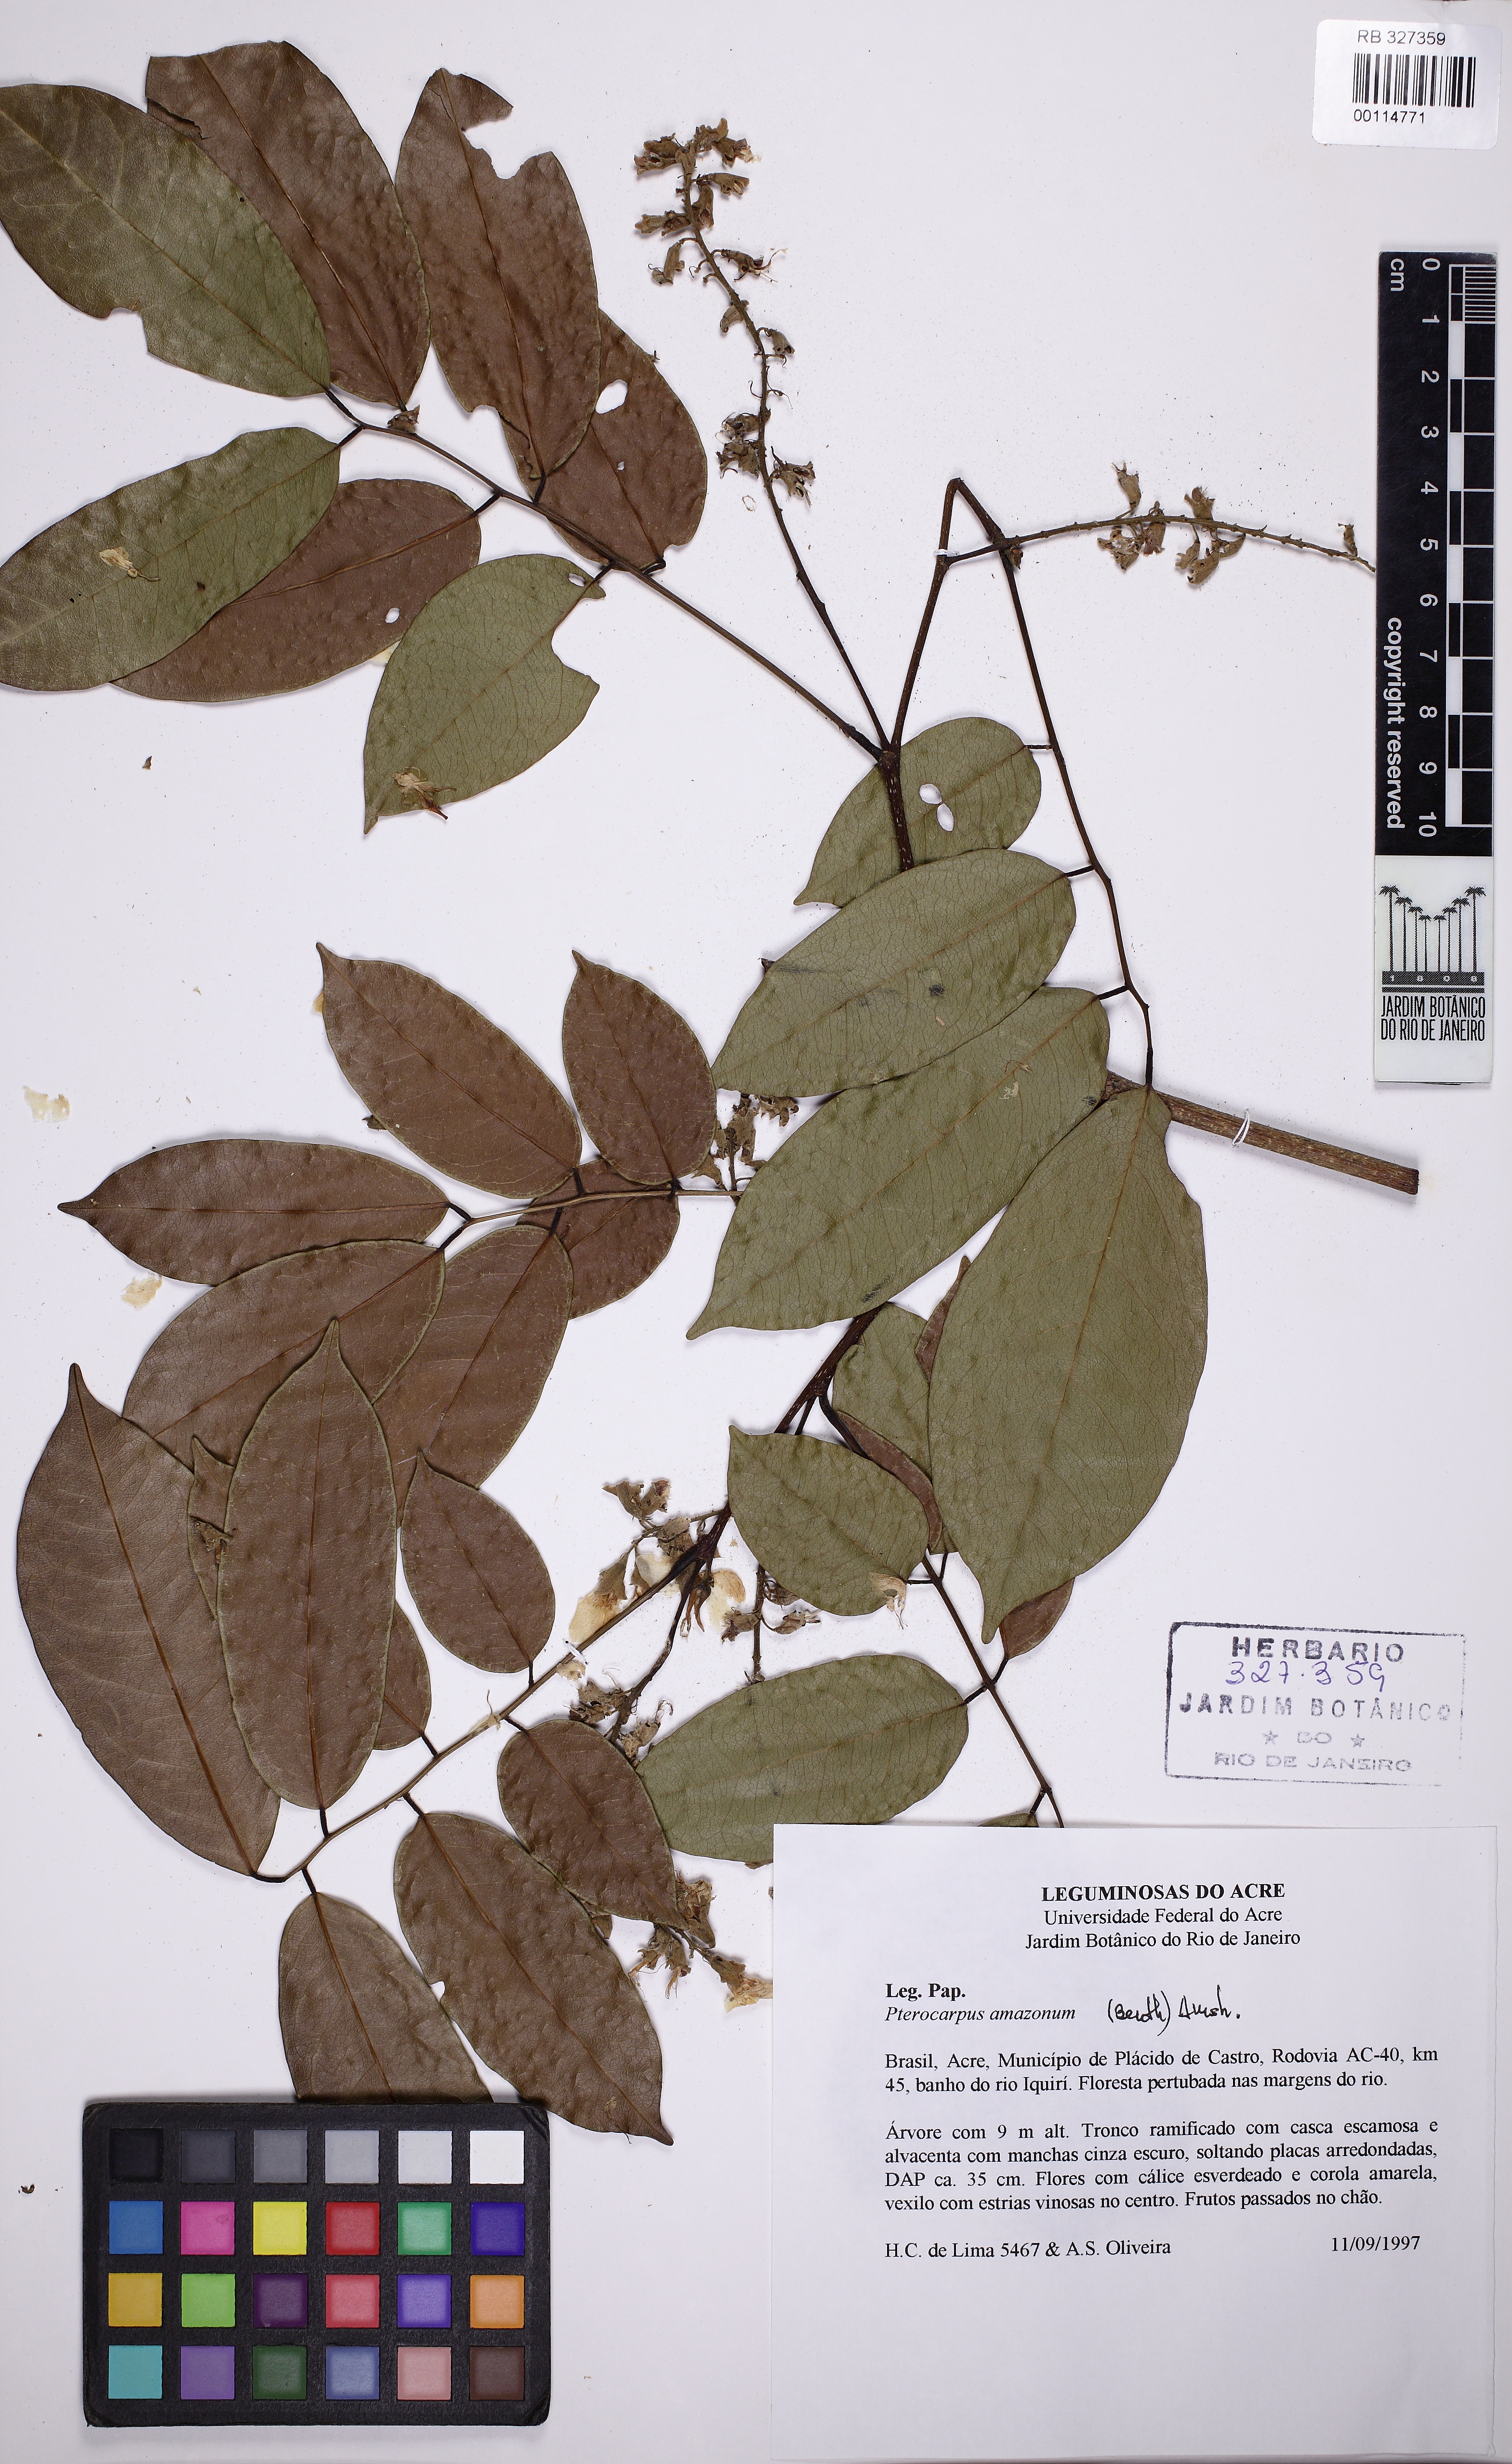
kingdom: Plantae
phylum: Tracheophyta
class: Magnoliopsida
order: Fabales
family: Fabaceae
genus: Pterocarpus
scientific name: Pterocarpus amazonum
